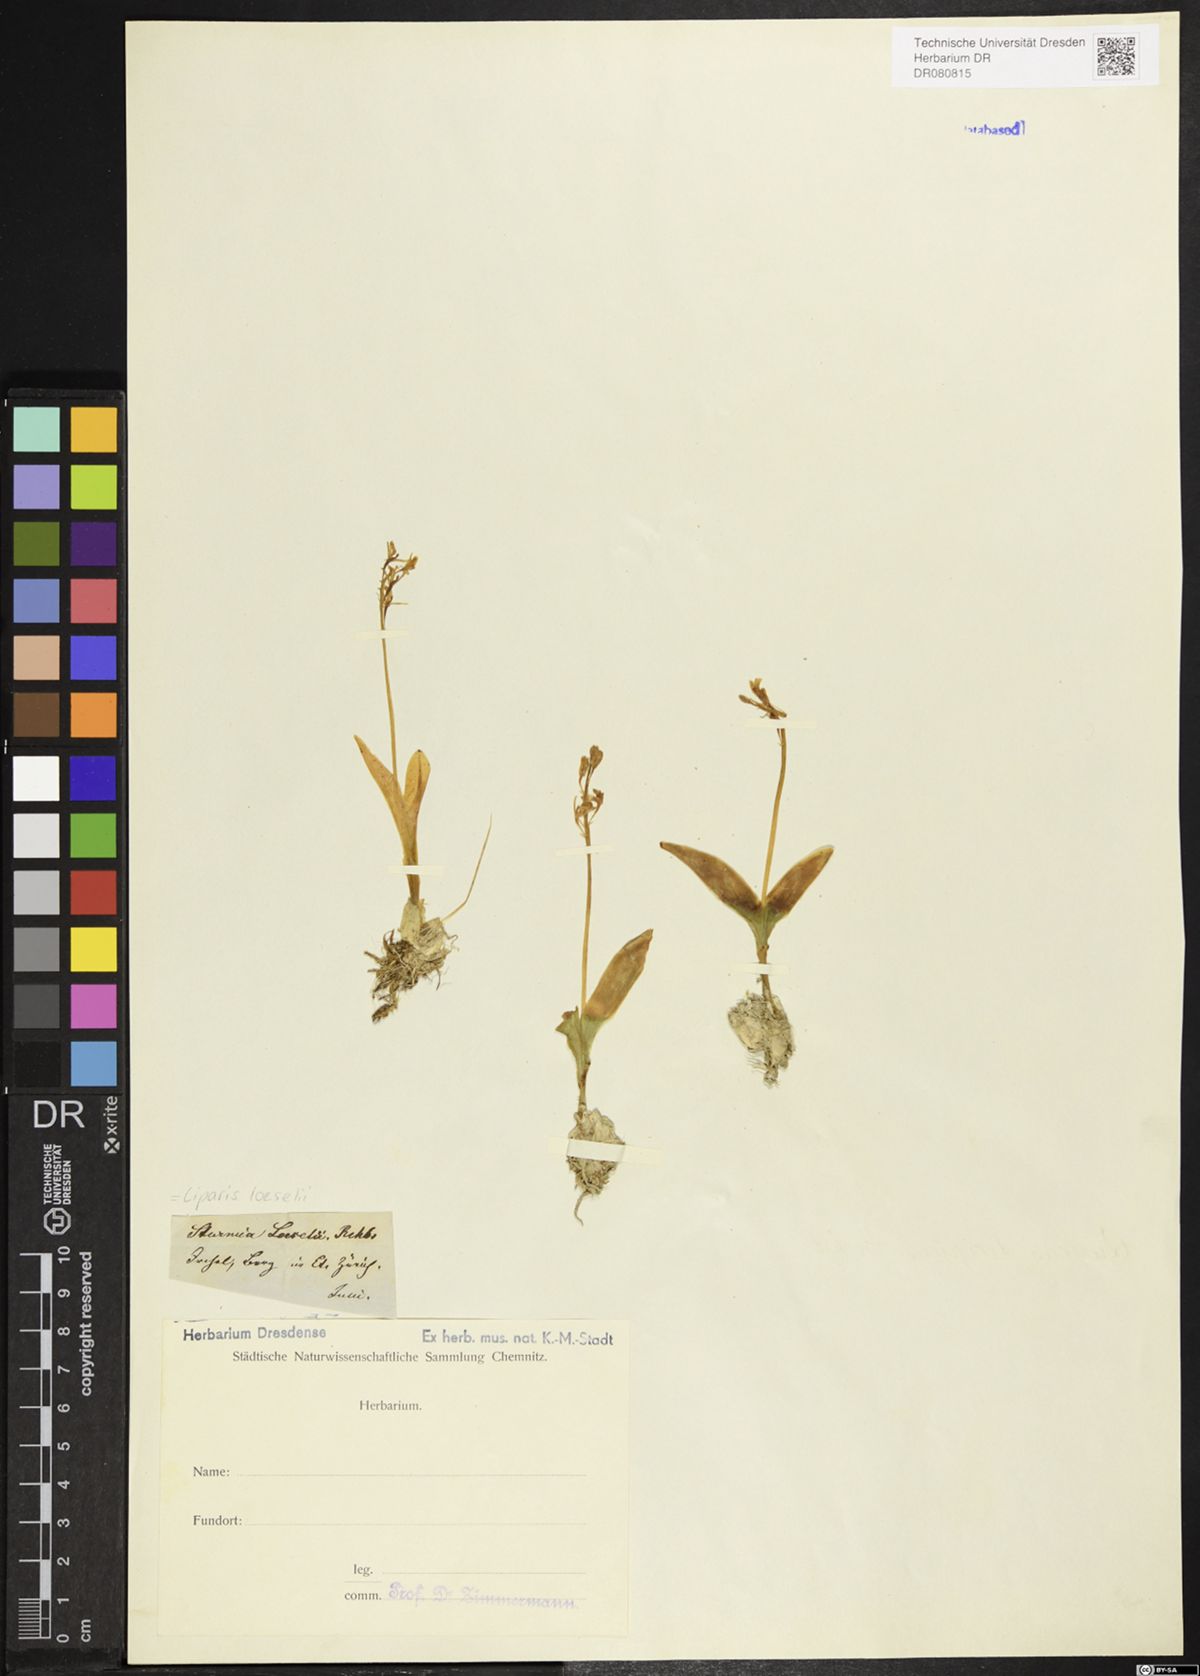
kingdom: Animalia
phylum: Arthropoda
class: Insecta
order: Coleoptera
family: Curculionidae
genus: Liparis
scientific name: Liparis loeselii
